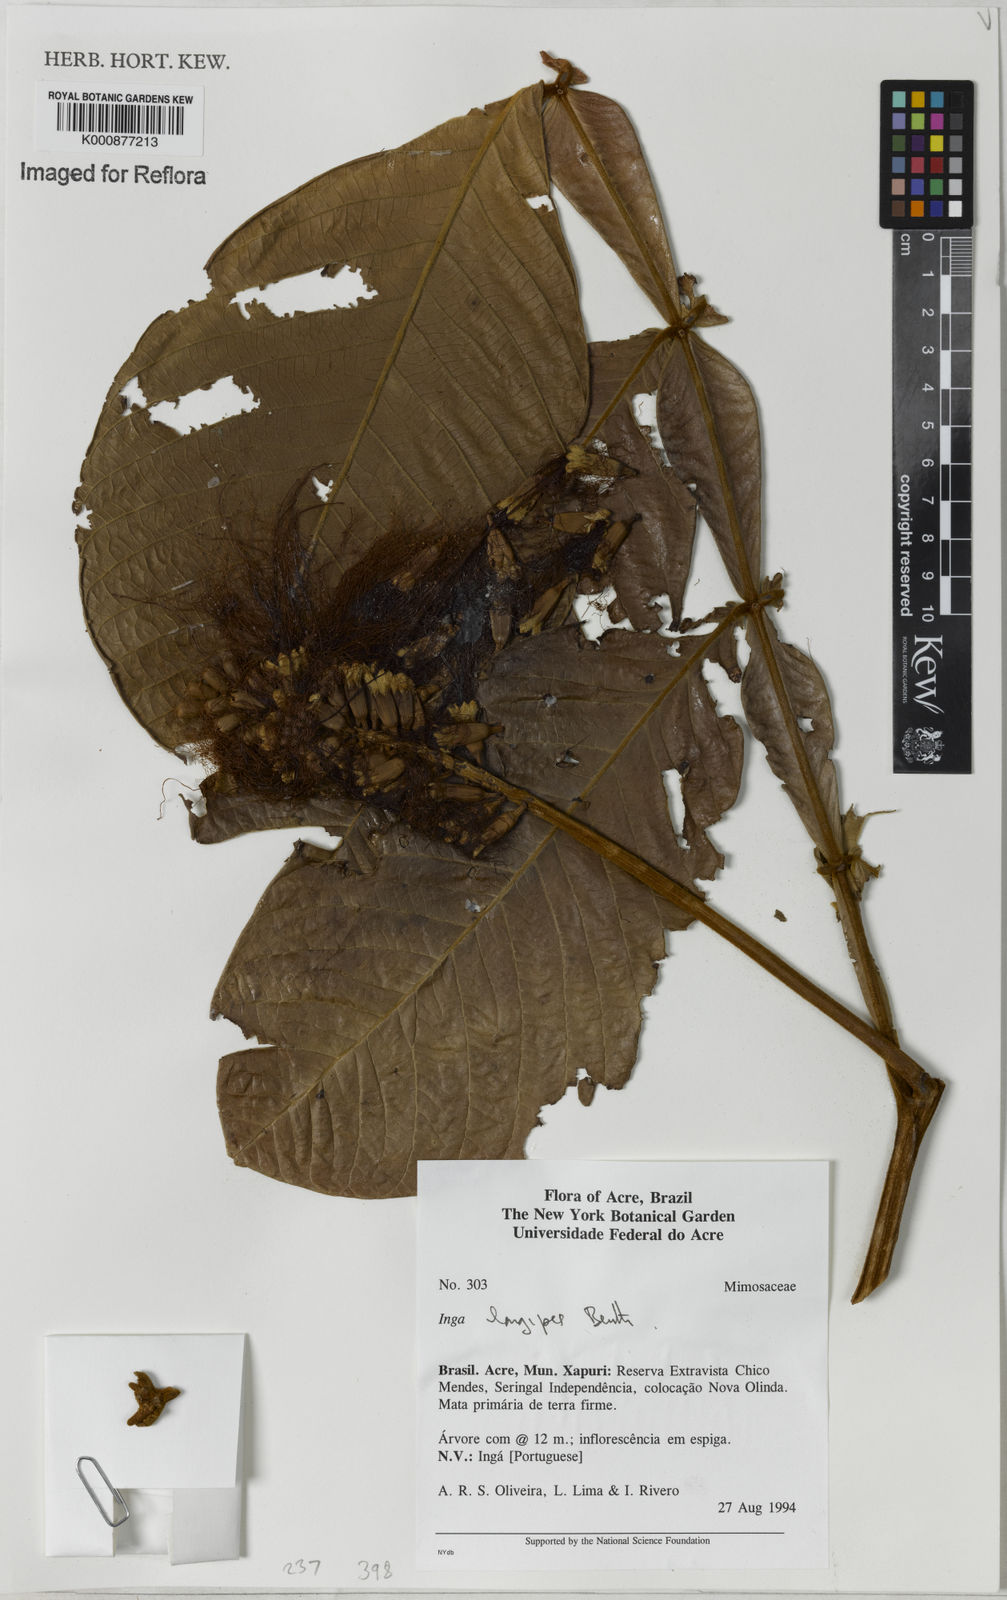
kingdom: Plantae
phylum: Tracheophyta
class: Magnoliopsida
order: Fabales
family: Fabaceae
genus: Inga
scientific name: Inga longipes
